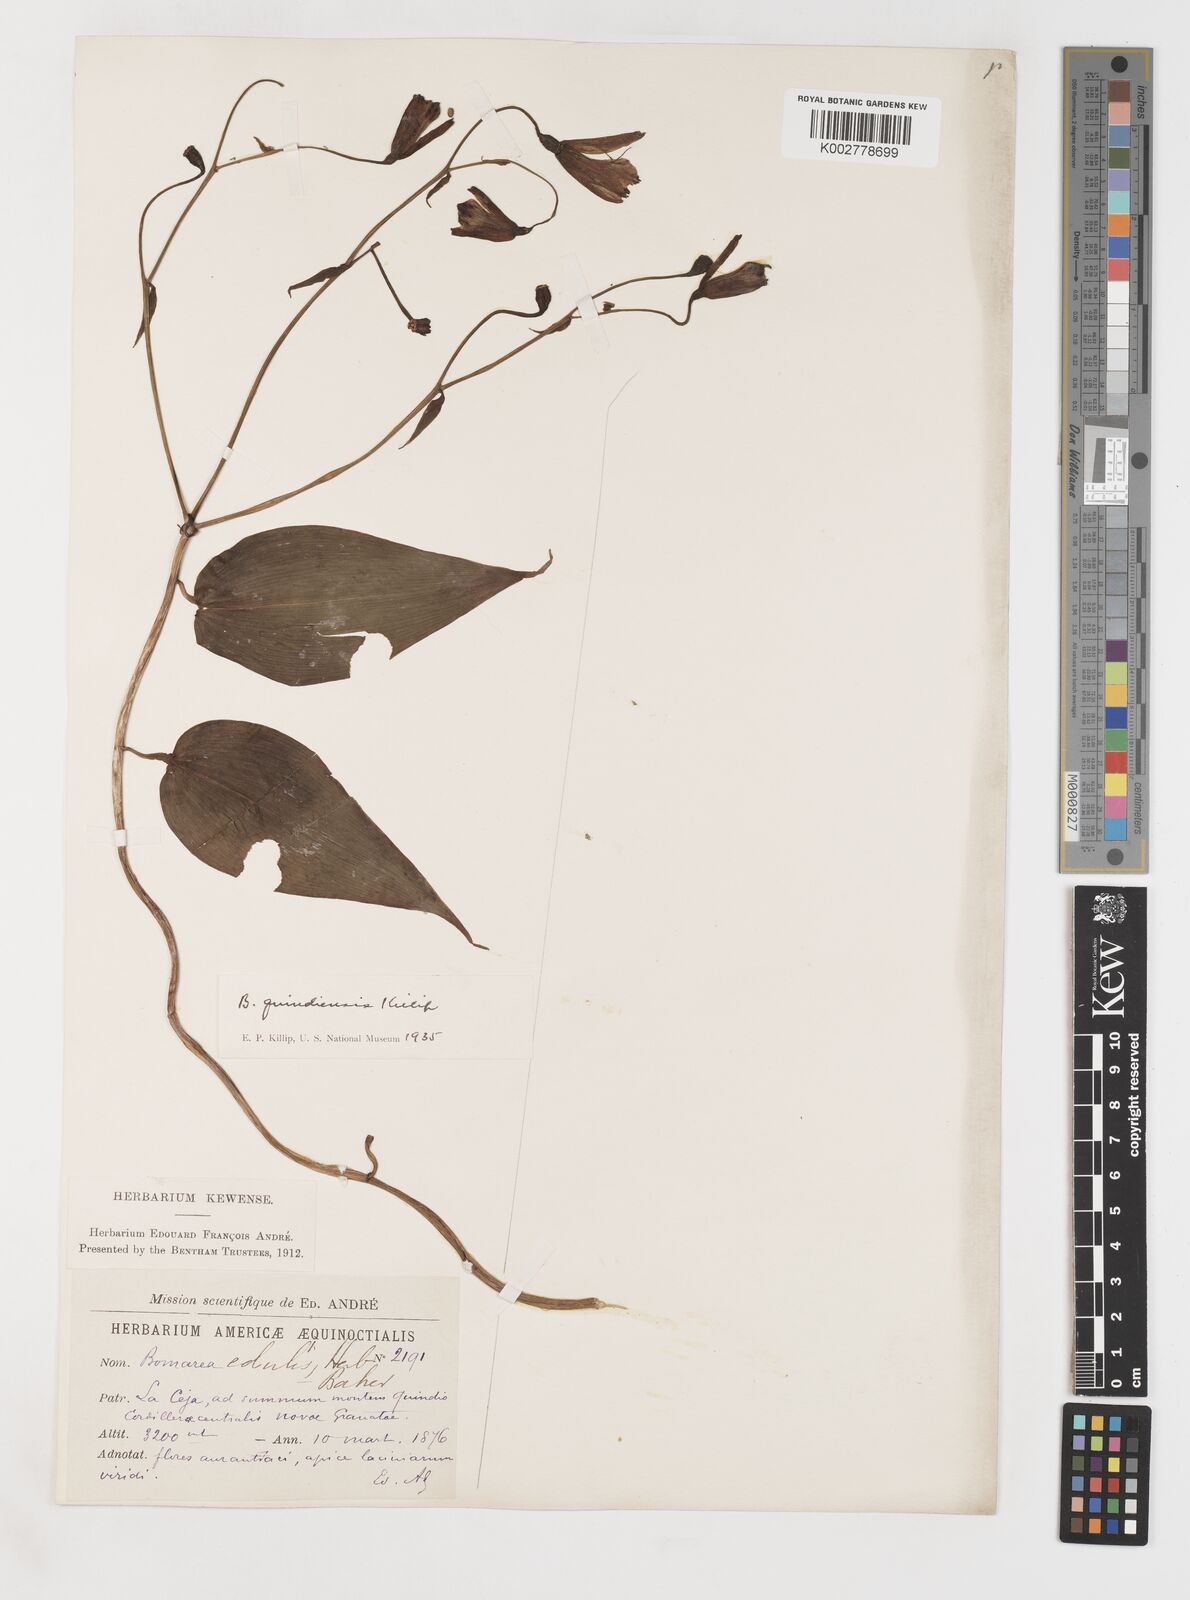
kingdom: Plantae
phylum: Tracheophyta
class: Liliopsida
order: Liliales
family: Alstroemeriaceae
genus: Bomarea
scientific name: Bomarea edulis
